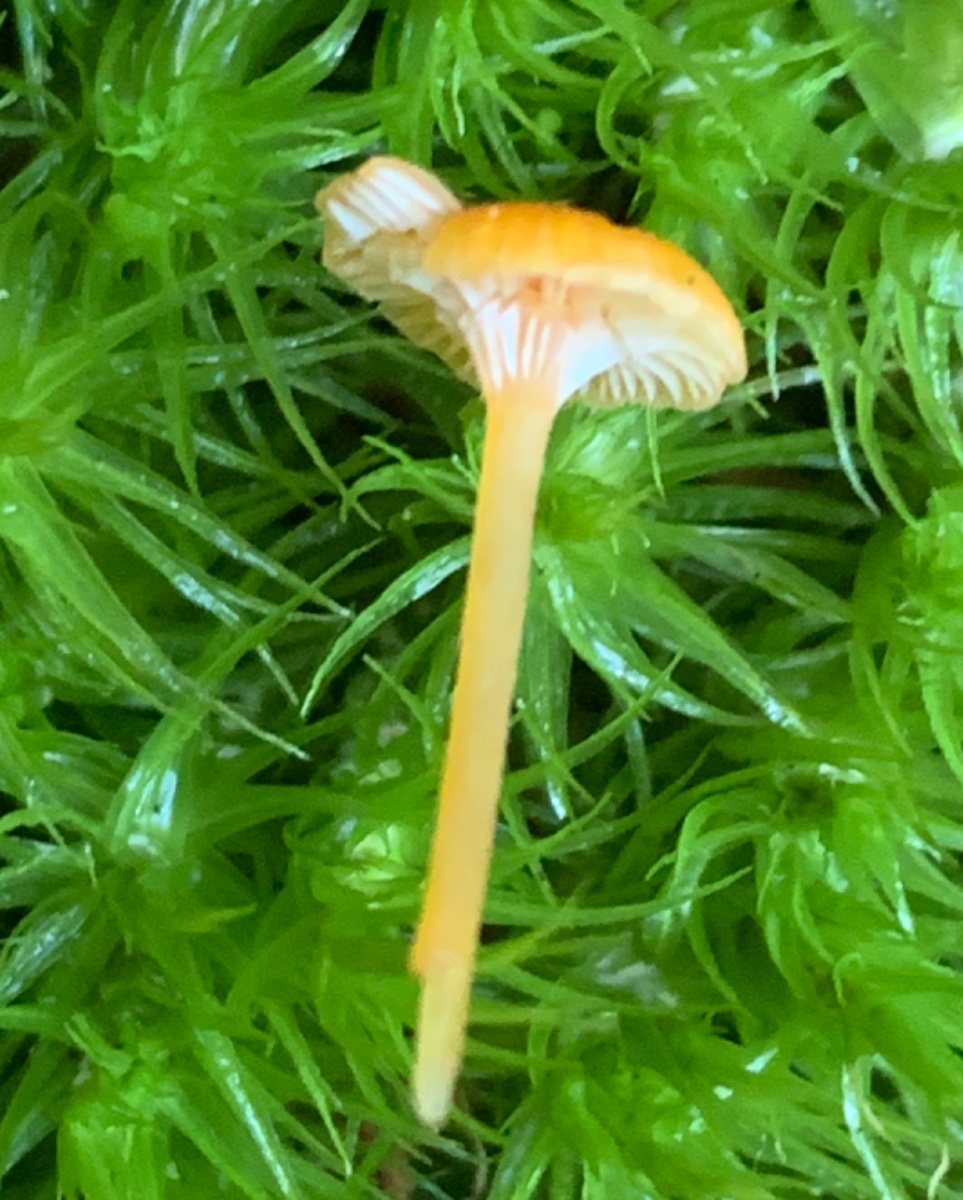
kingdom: Fungi
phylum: Basidiomycota
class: Agaricomycetes
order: Hymenochaetales
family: Rickenellaceae
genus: Rickenella
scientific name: Rickenella fibula
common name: orange mosnavlehat
